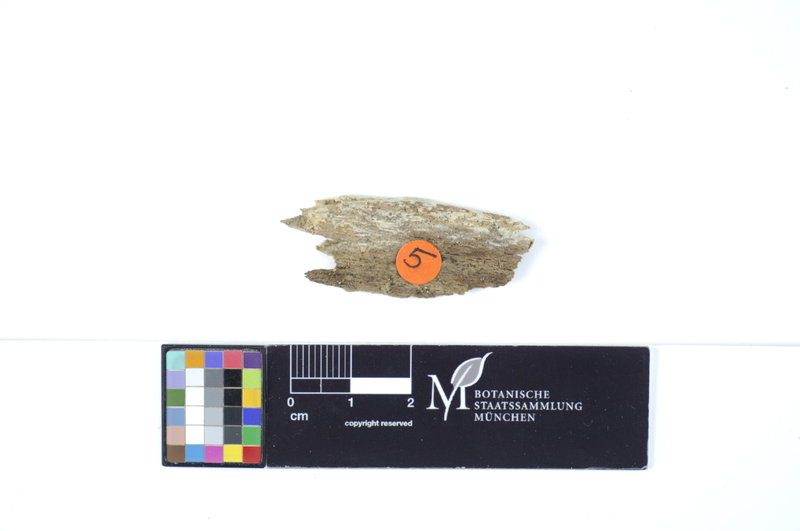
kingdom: Fungi
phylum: Basidiomycota
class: Agaricomycetes
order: Polyporales
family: Meruliaceae
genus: Phlebia
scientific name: Phlebia rufa
